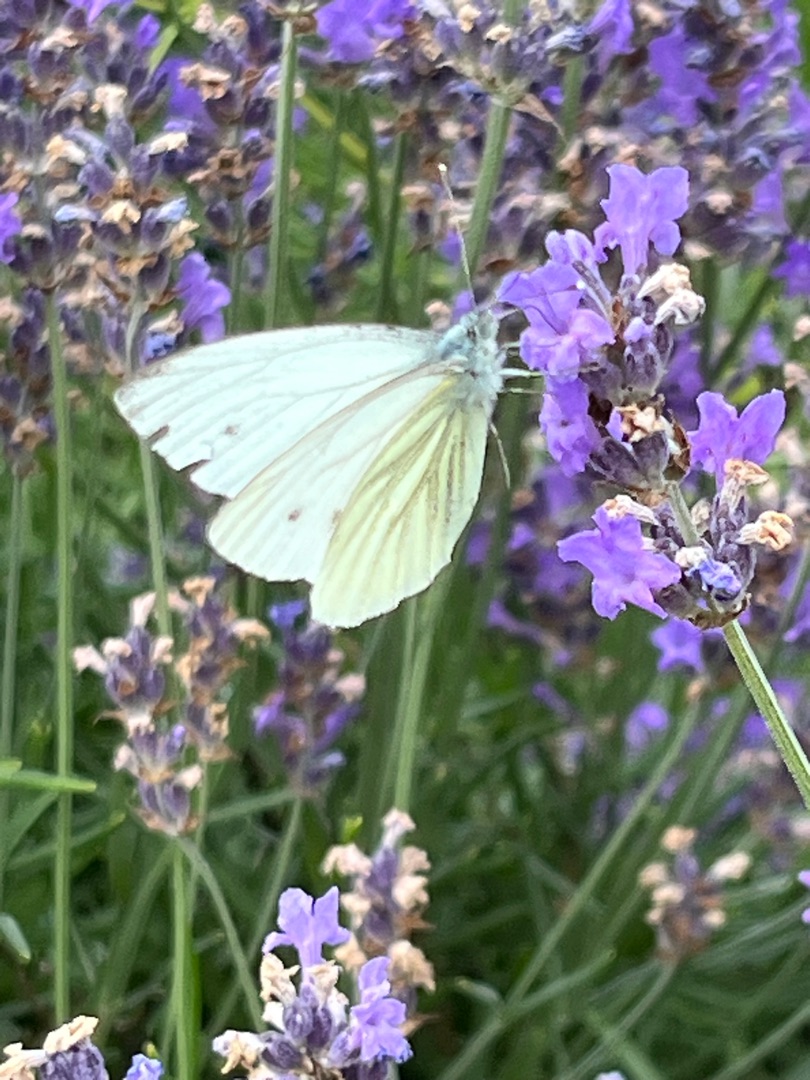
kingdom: Animalia
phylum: Arthropoda
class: Insecta
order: Lepidoptera
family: Pieridae
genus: Pieris
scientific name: Pieris napi
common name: Grønåret kålsommerfugl
